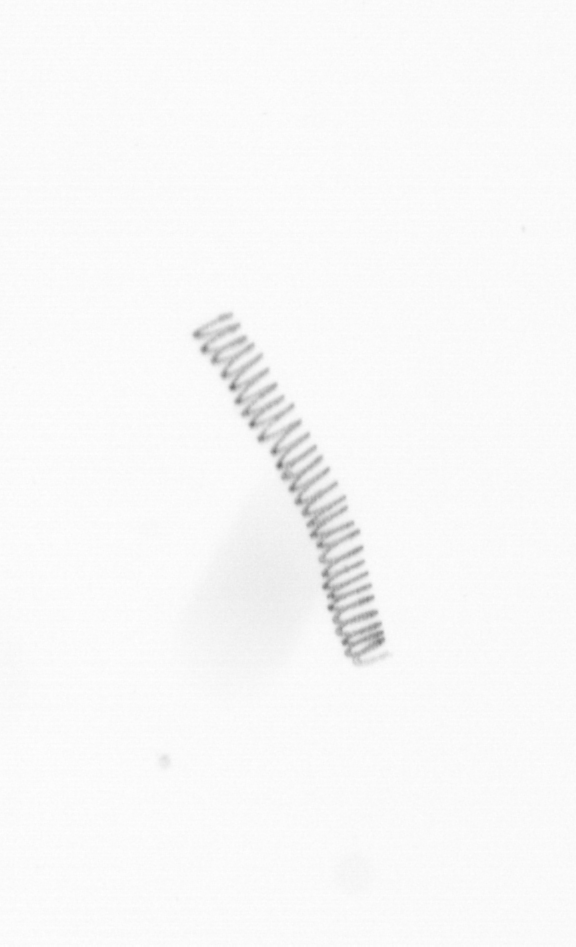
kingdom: Chromista
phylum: Ochrophyta
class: Bacillariophyceae
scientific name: Bacillariophyceae
